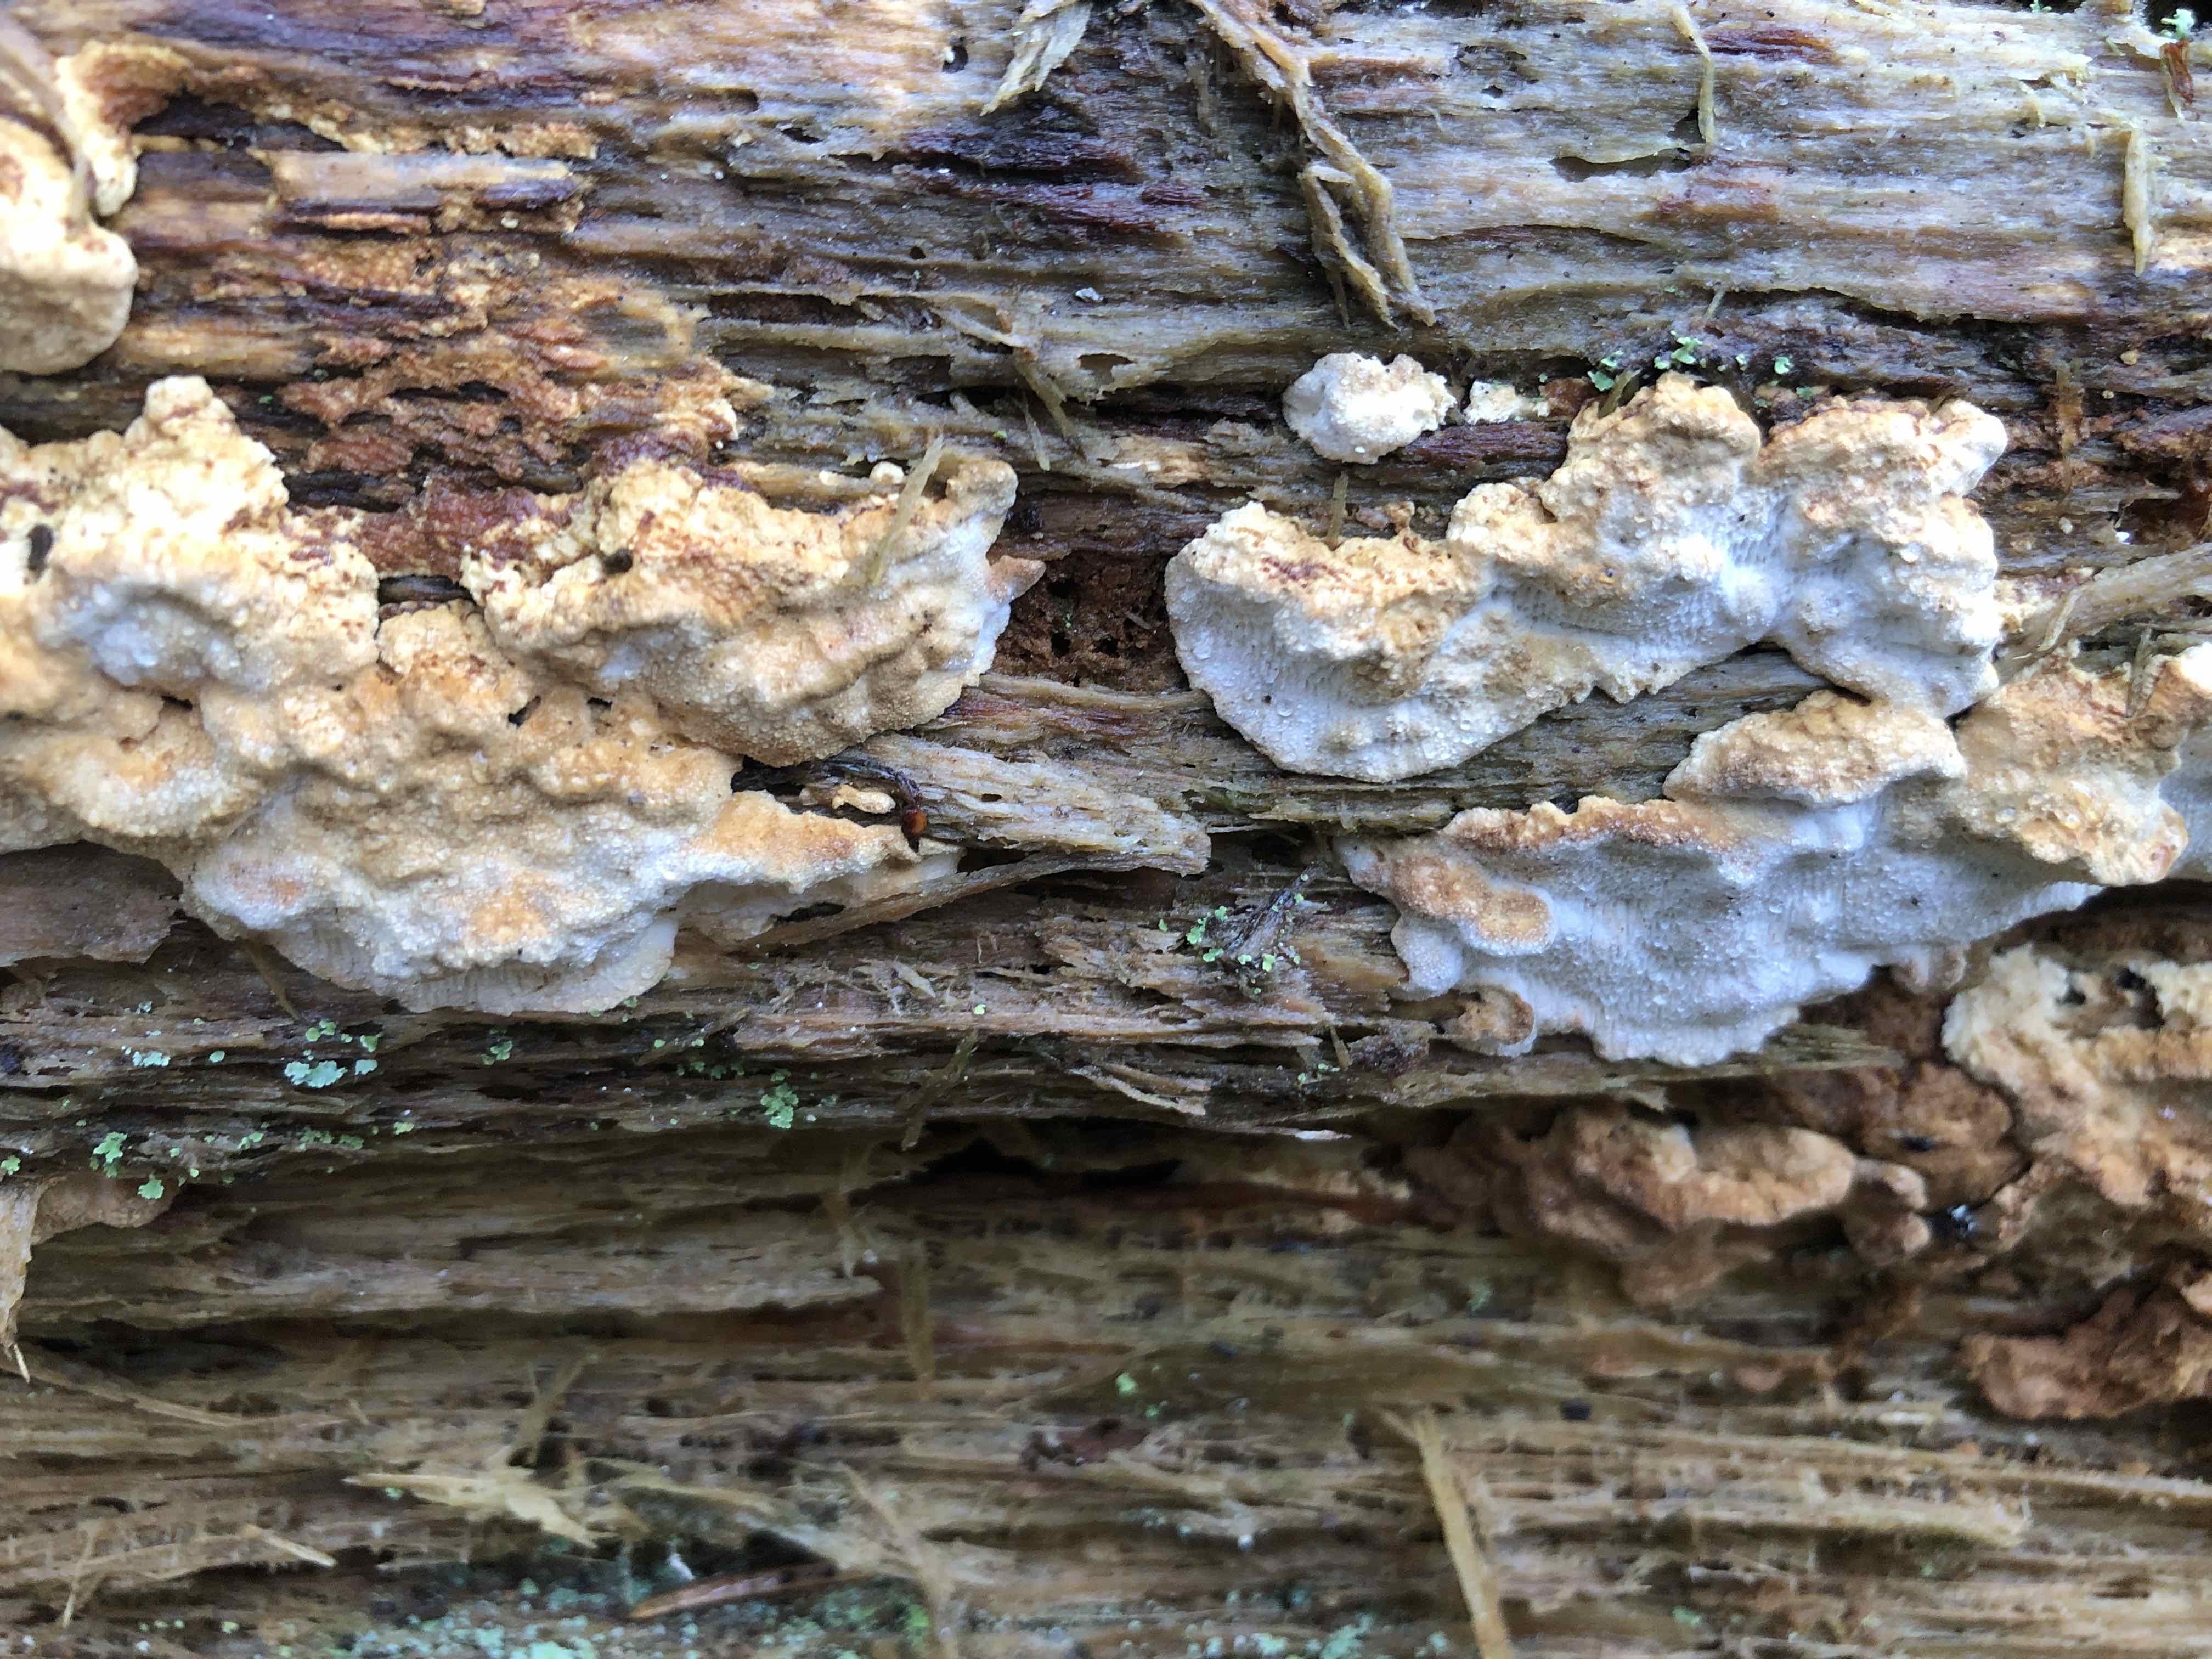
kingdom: Fungi
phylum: Basidiomycota
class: Agaricomycetes
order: Polyporales
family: Fomitopsidaceae
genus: Neoantrodia
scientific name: Neoantrodia serialis
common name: række-sejporesvamp
